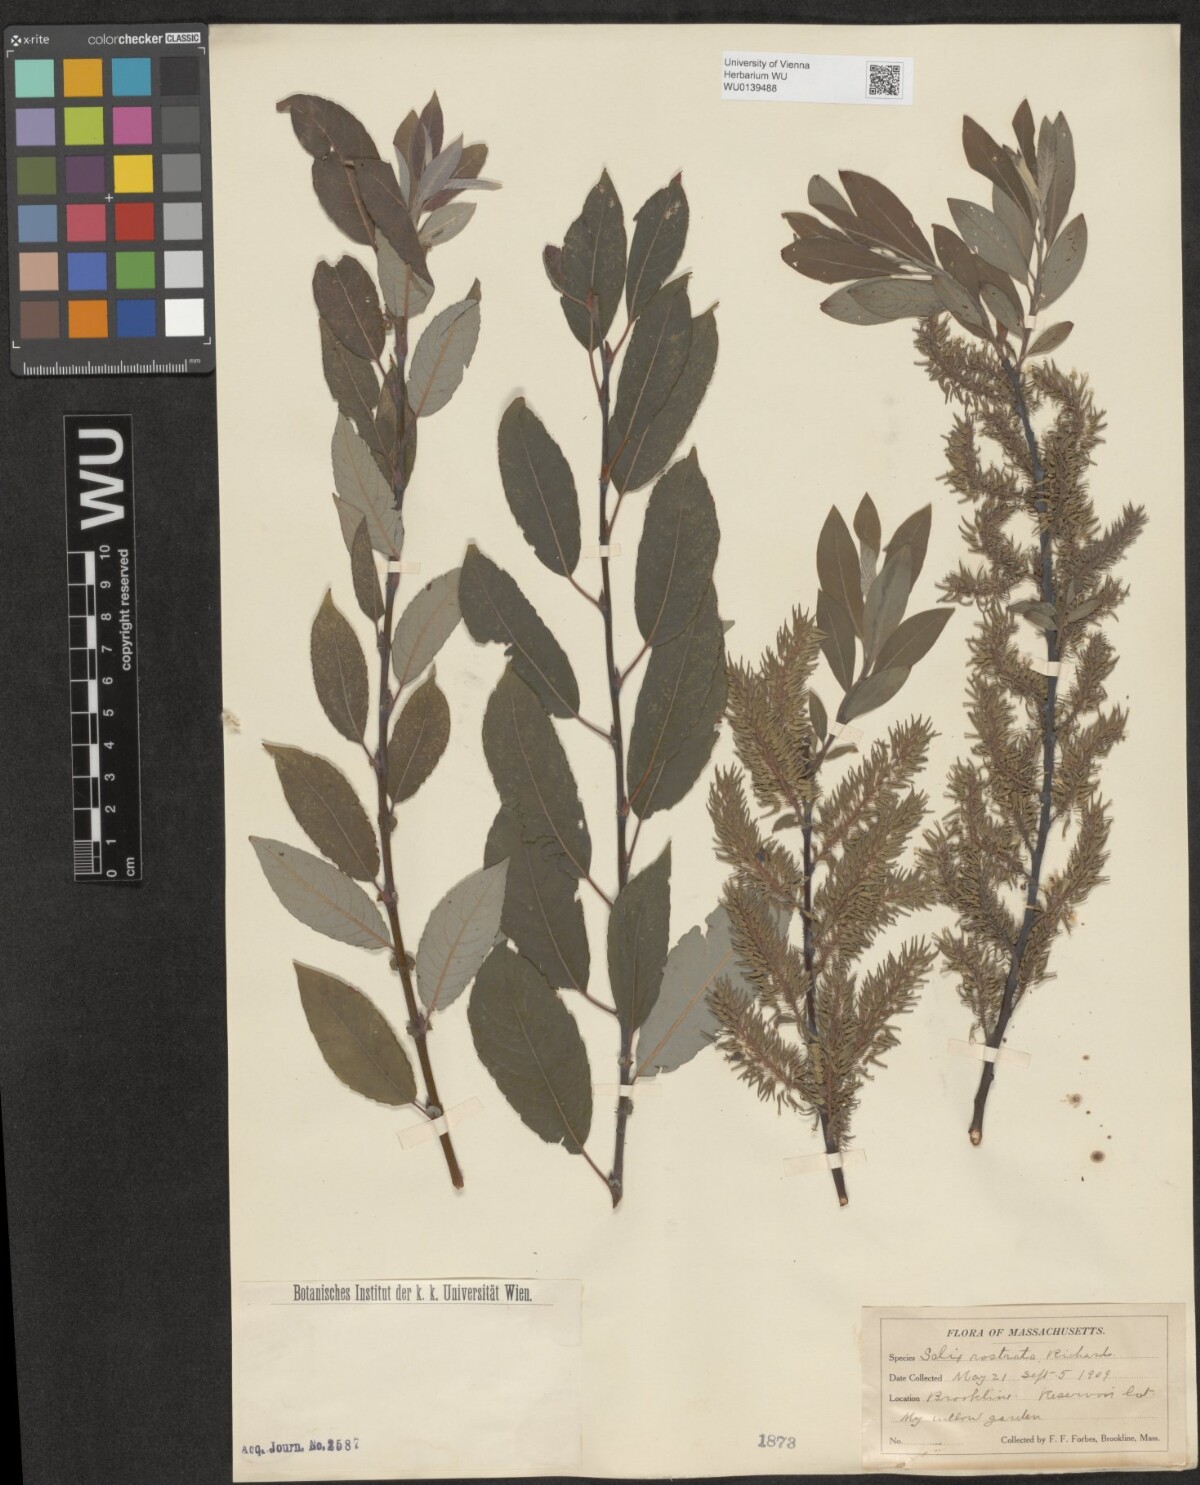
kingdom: Plantae
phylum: Tracheophyta
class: Magnoliopsida
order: Malpighiales
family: Salicaceae
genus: Salix
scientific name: Salix bebbiana
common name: Bebb's willow
